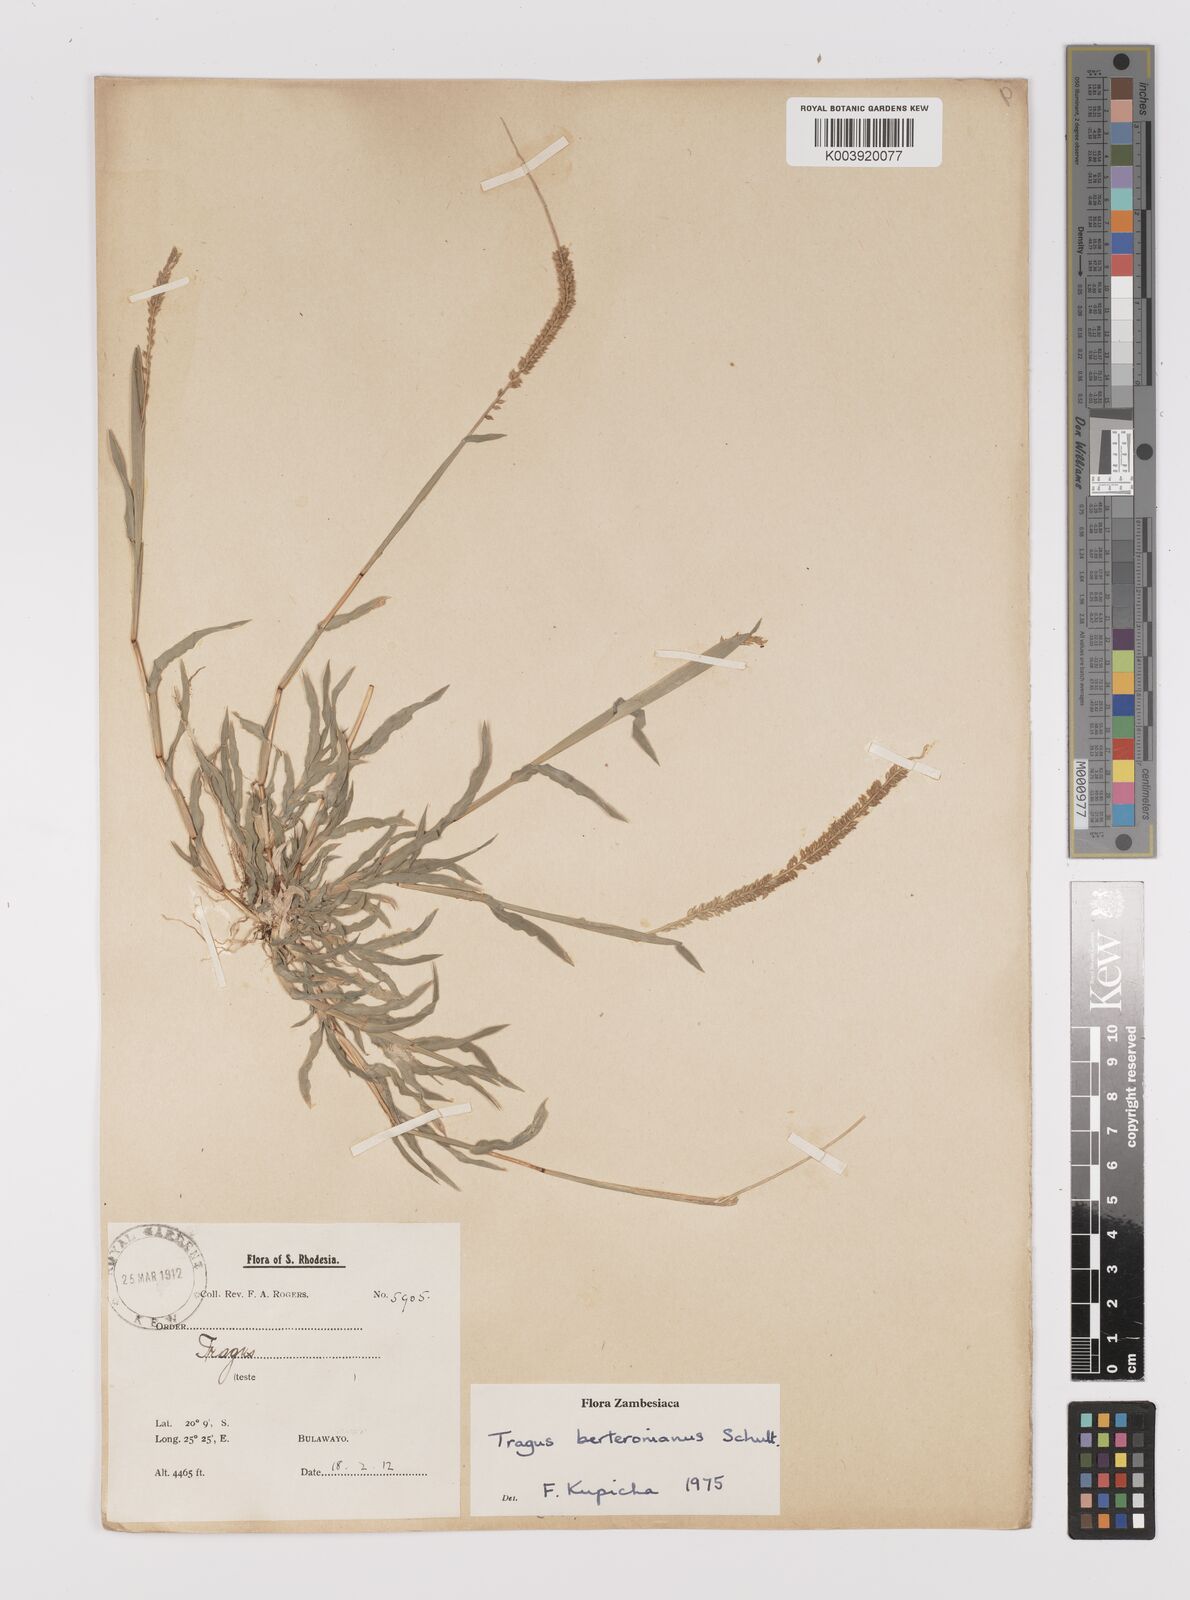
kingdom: Plantae
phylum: Tracheophyta
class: Liliopsida
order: Poales
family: Poaceae
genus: Tragus
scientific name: Tragus berteronianus
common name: African bur-grass
